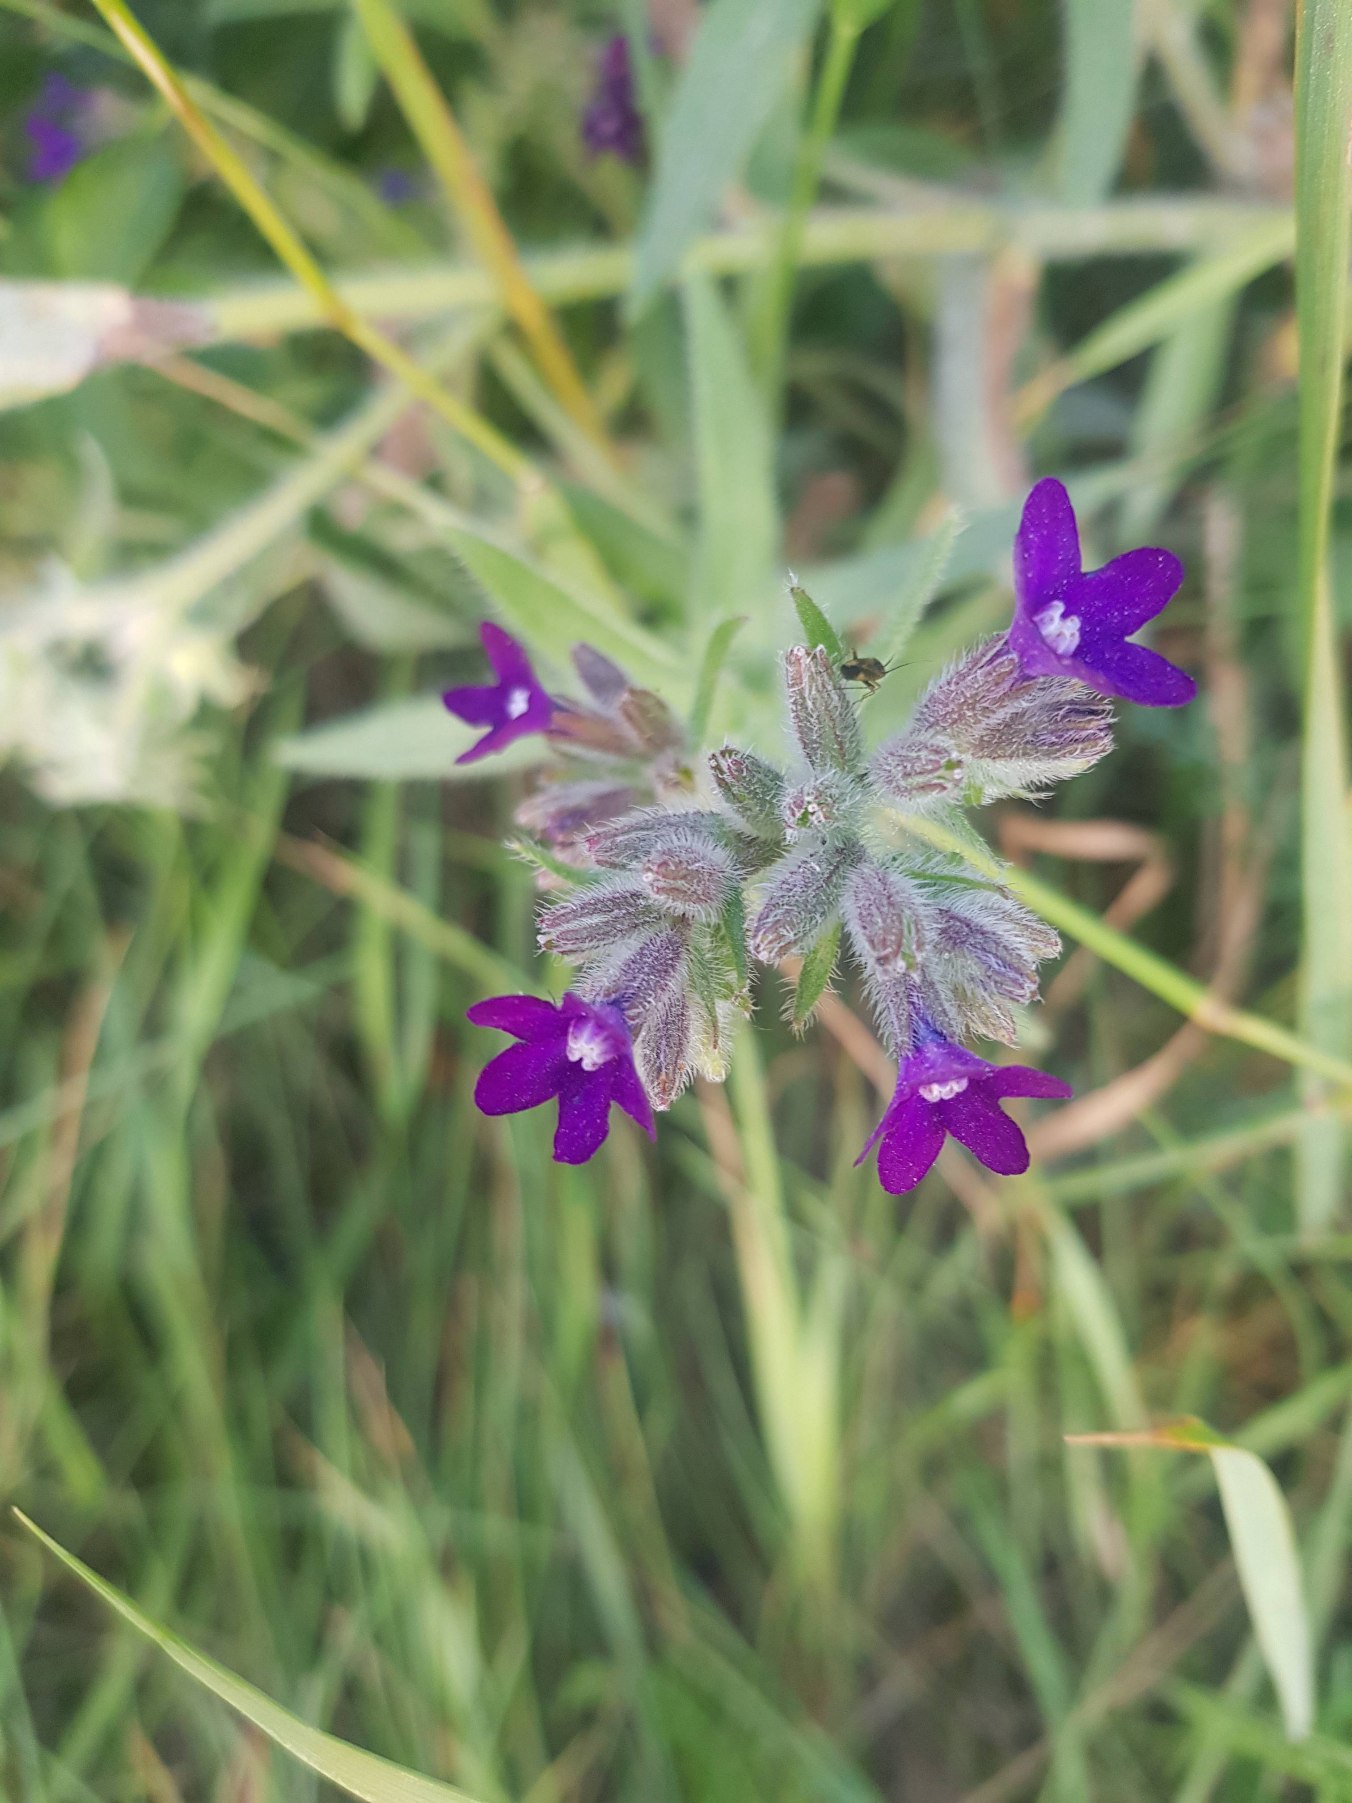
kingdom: Plantae
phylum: Tracheophyta
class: Magnoliopsida
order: Boraginales
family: Boraginaceae
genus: Anchusa
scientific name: Anchusa officinalis
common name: Læge-oksetunge
